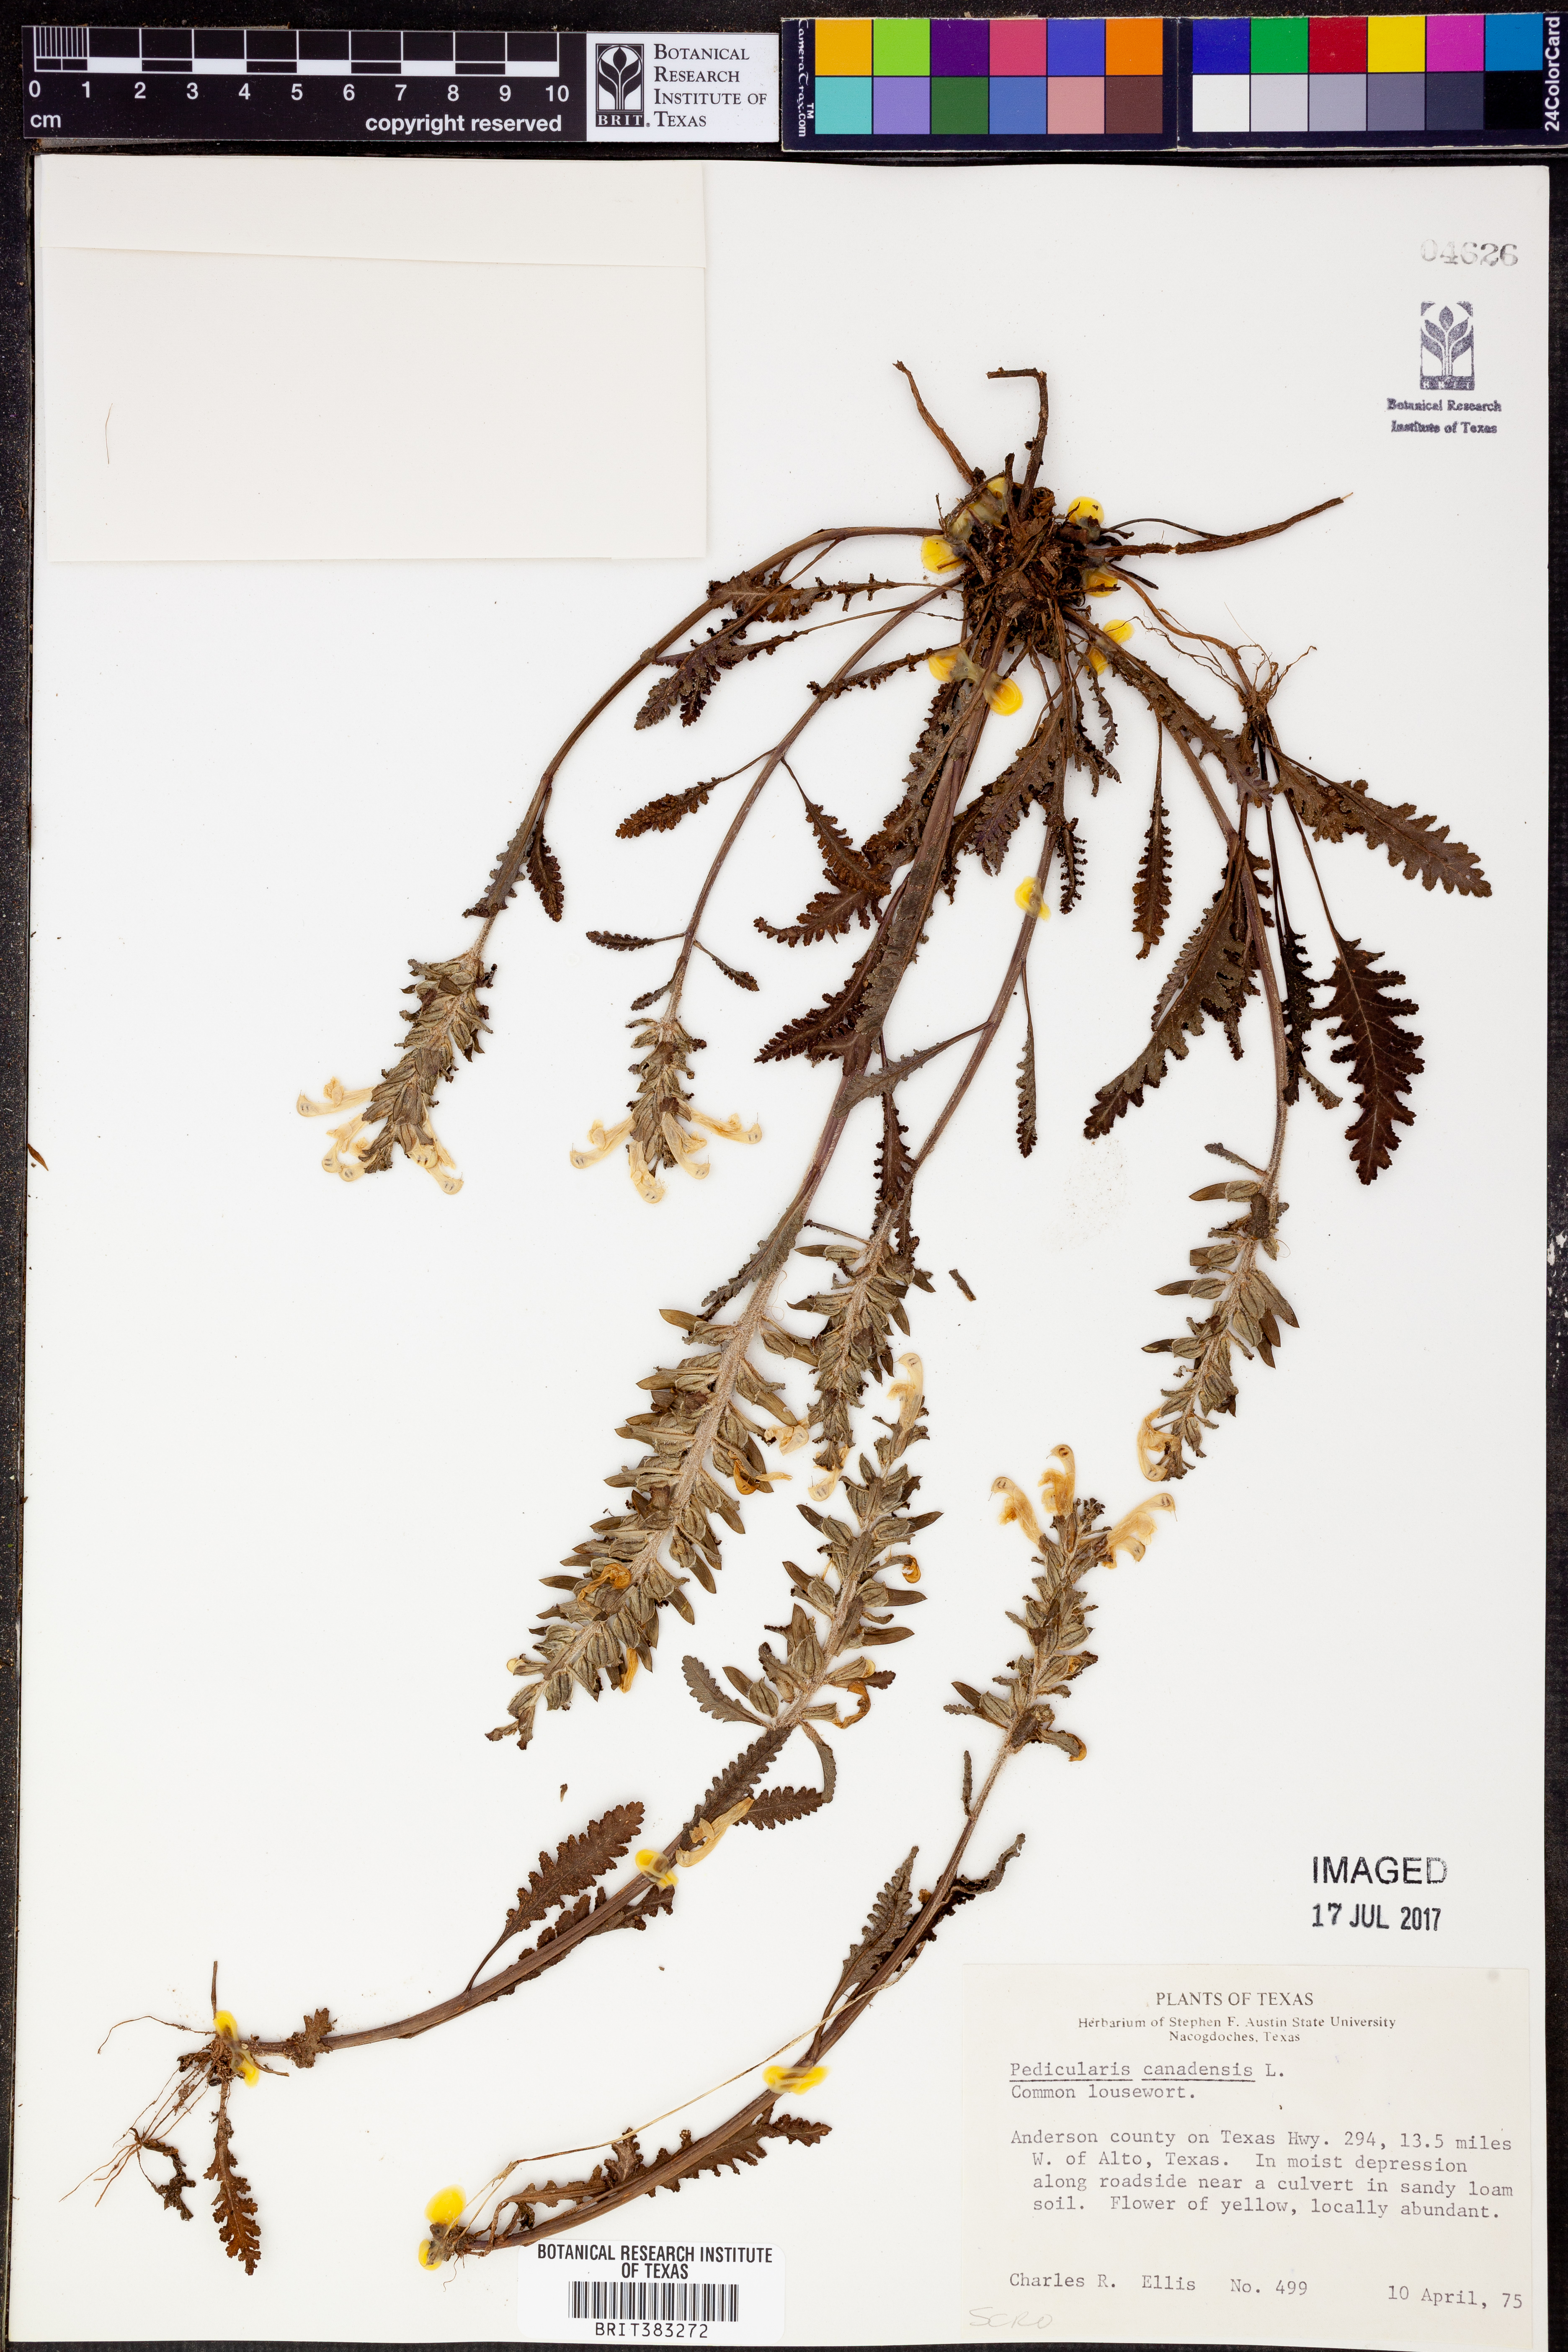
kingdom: Plantae
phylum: Tracheophyta
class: Magnoliopsida
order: Lamiales
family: Orobanchaceae
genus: Pedicularis
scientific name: Pedicularis canadensis
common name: Early lousewort
